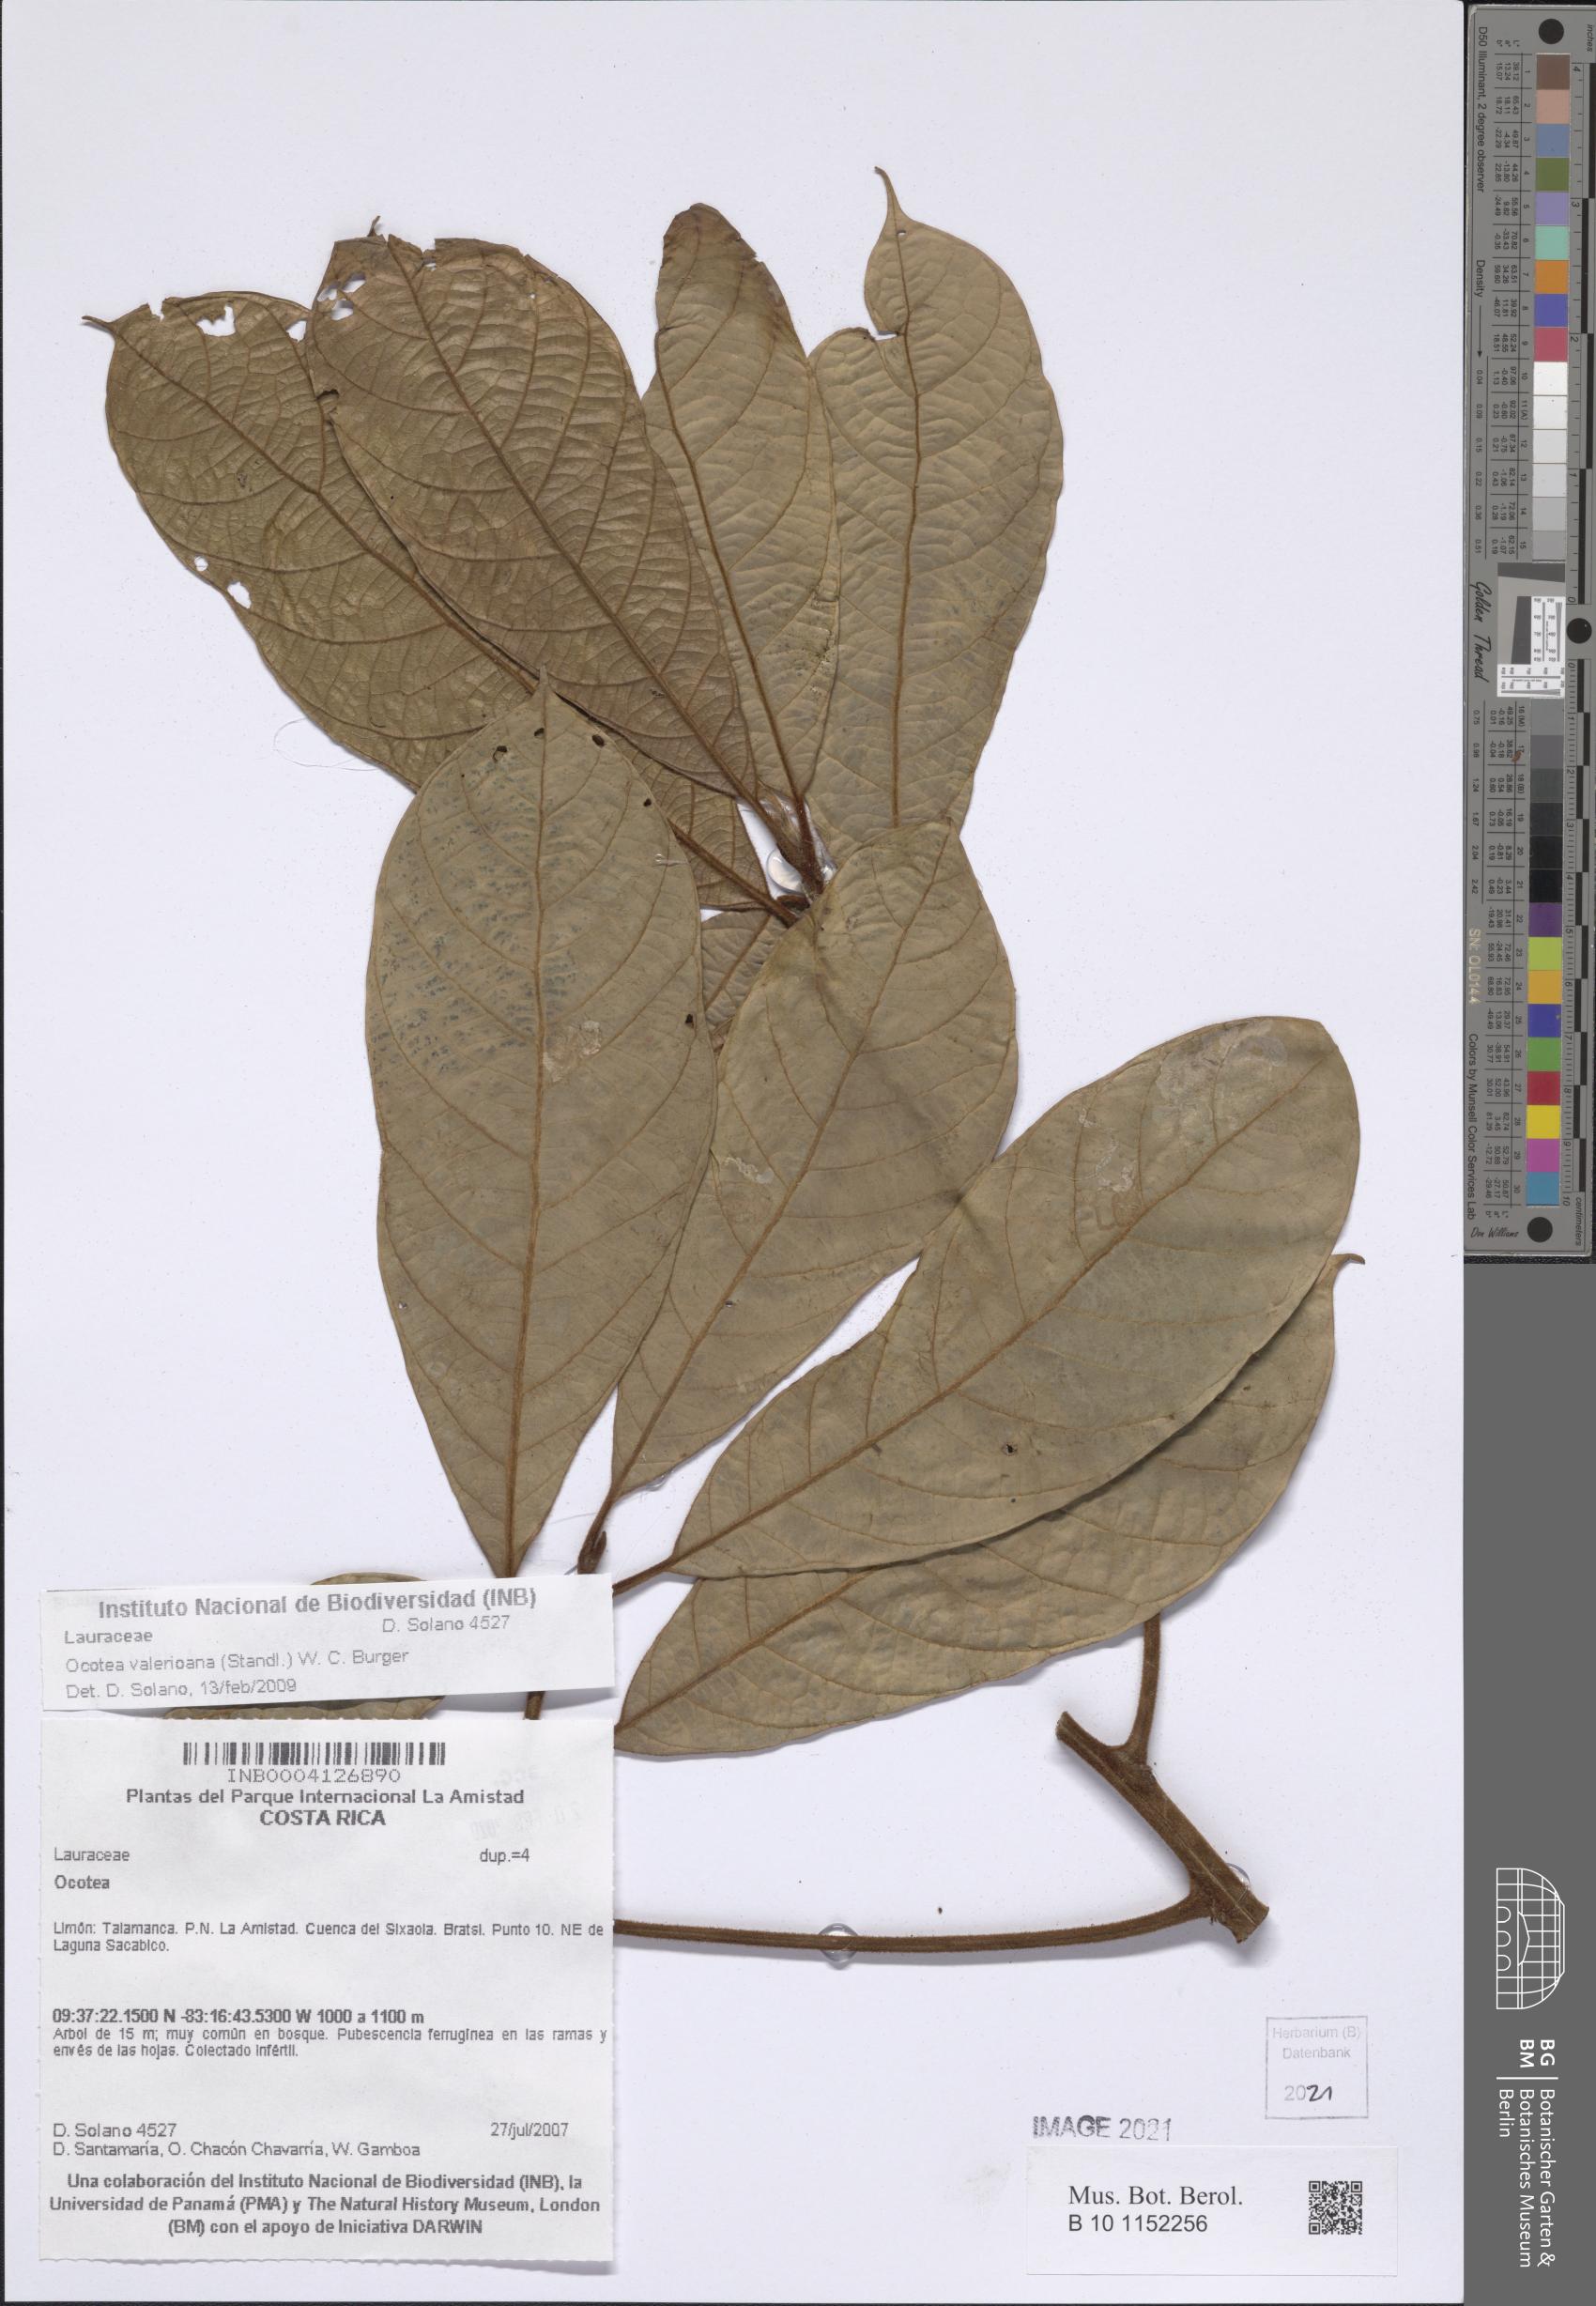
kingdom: Plantae
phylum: Tracheophyta
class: Magnoliopsida
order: Laurales
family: Lauraceae
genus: Ocotea
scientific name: Ocotea valerioana
